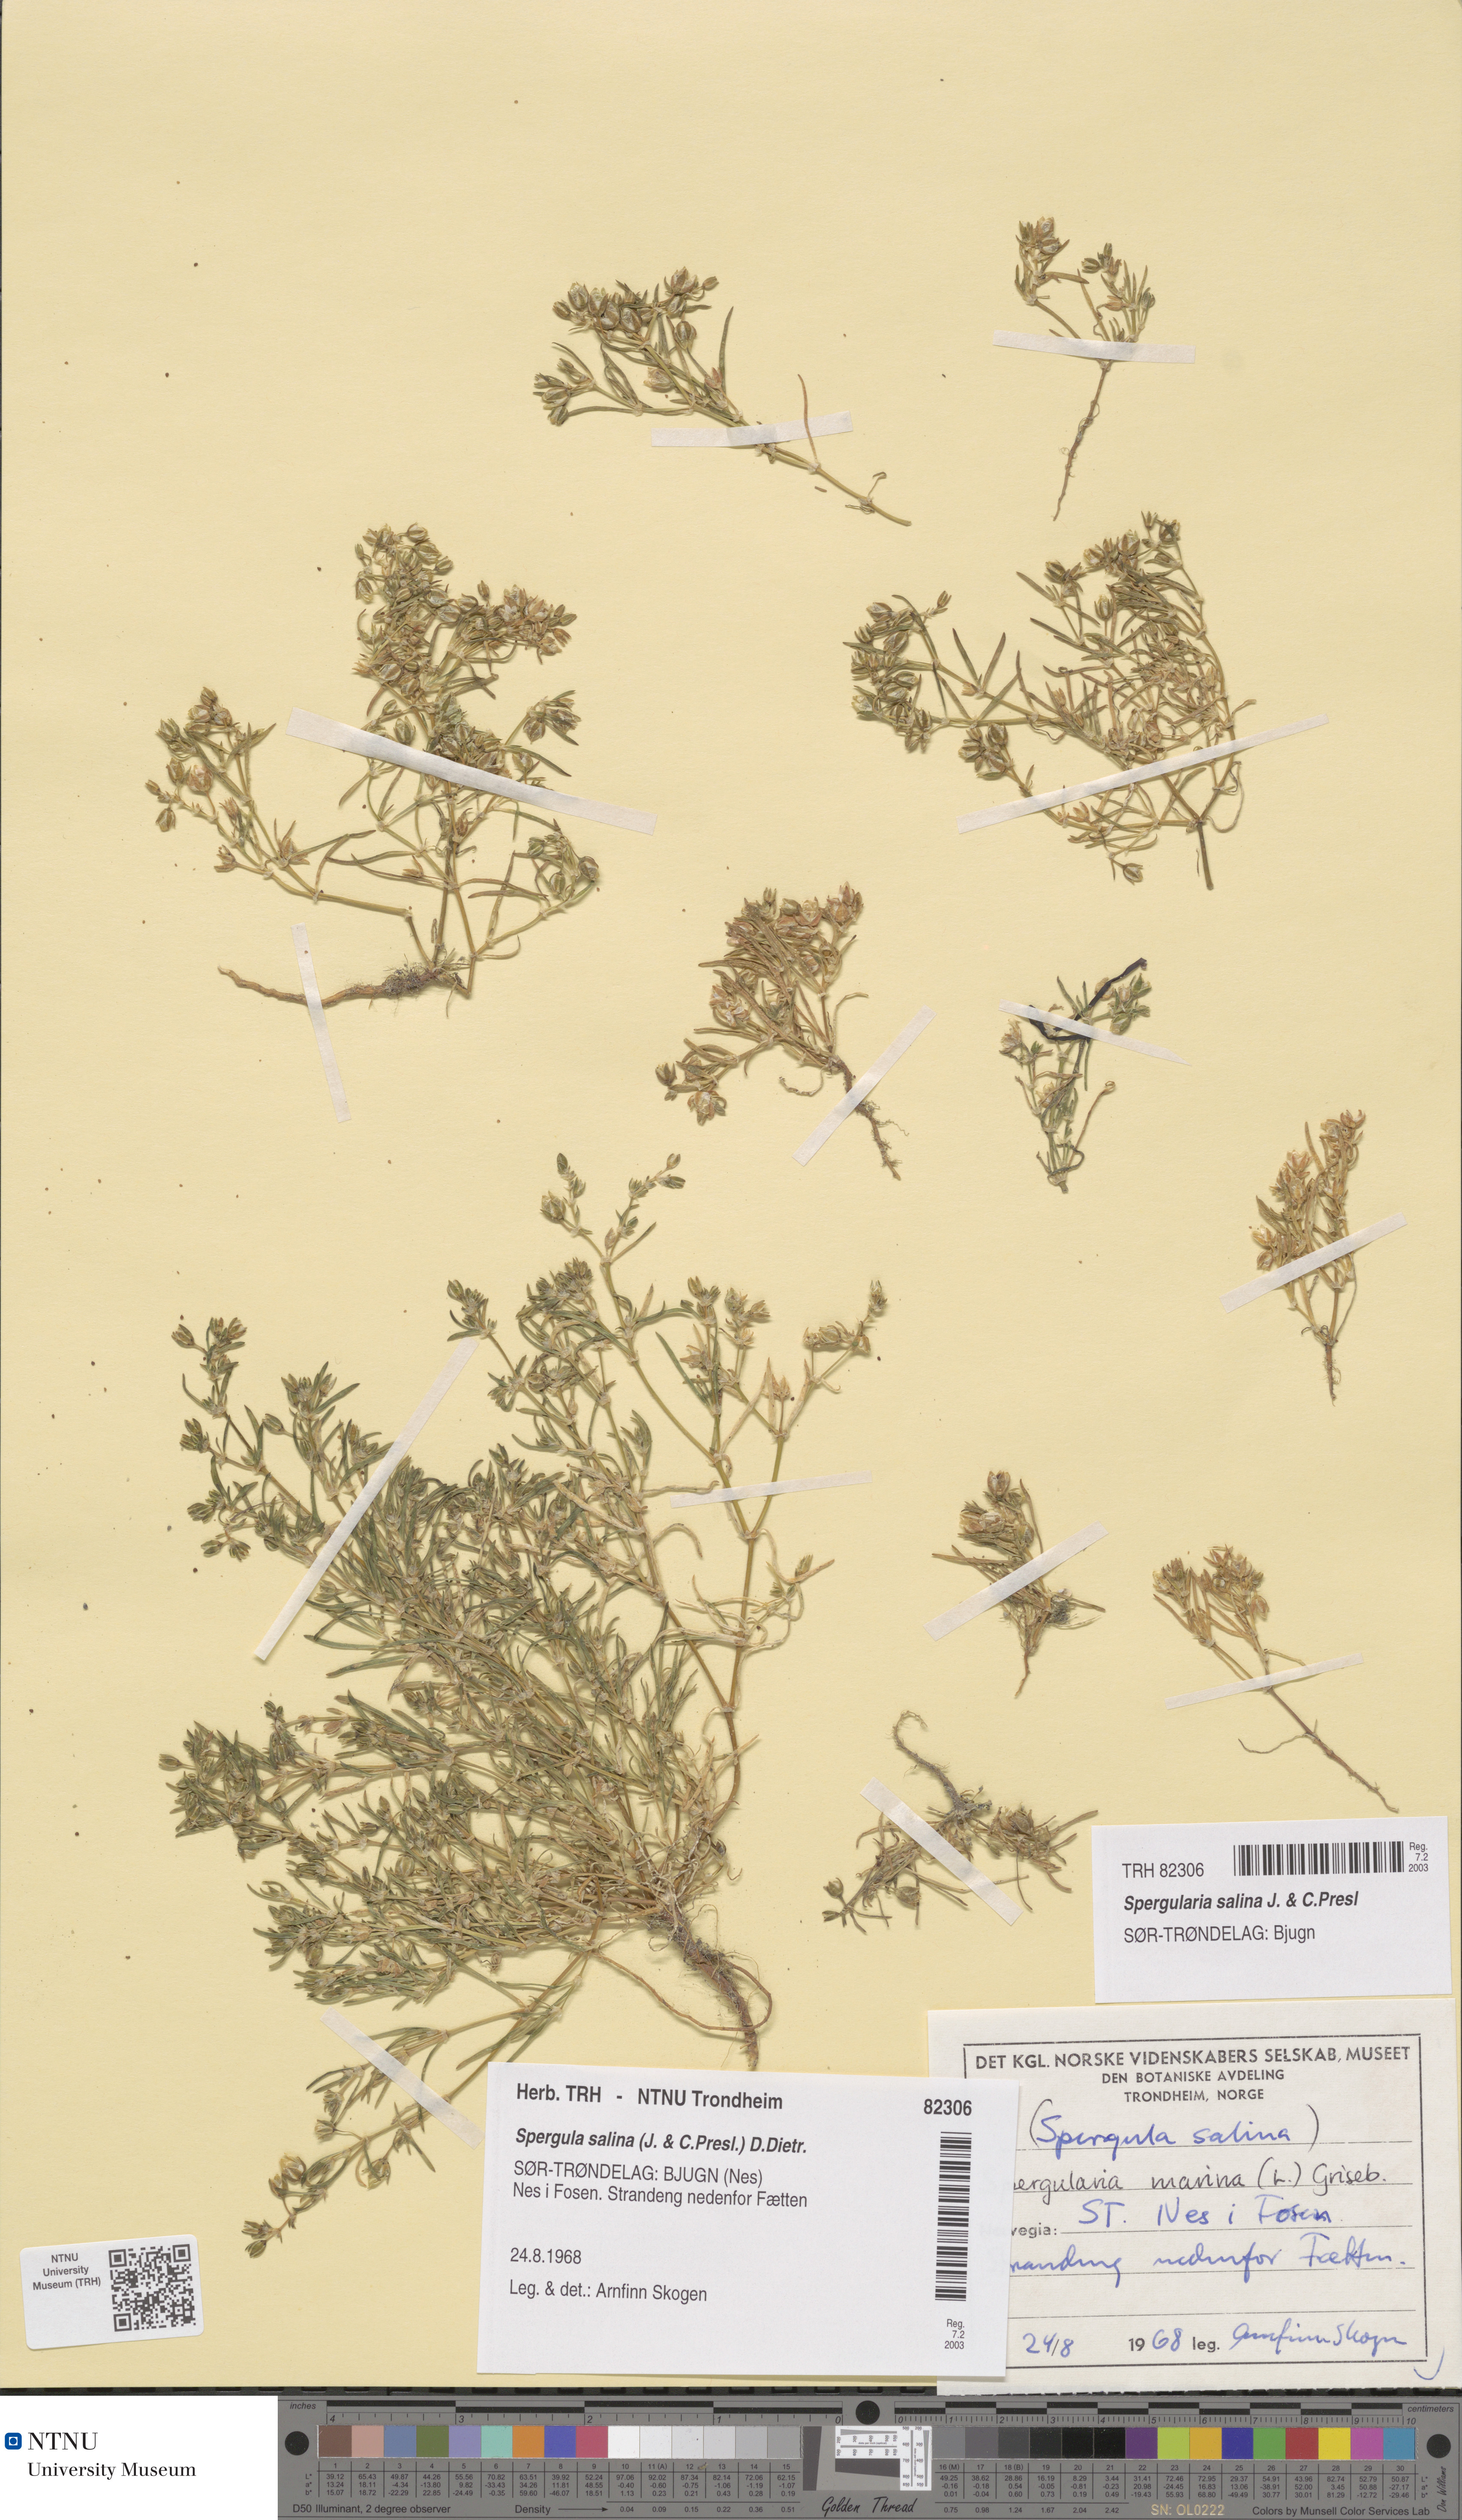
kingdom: Plantae
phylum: Tracheophyta
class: Magnoliopsida
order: Caryophyllales
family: Caryophyllaceae
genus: Spergularia
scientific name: Spergularia marina
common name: Lesser sea-spurrey
